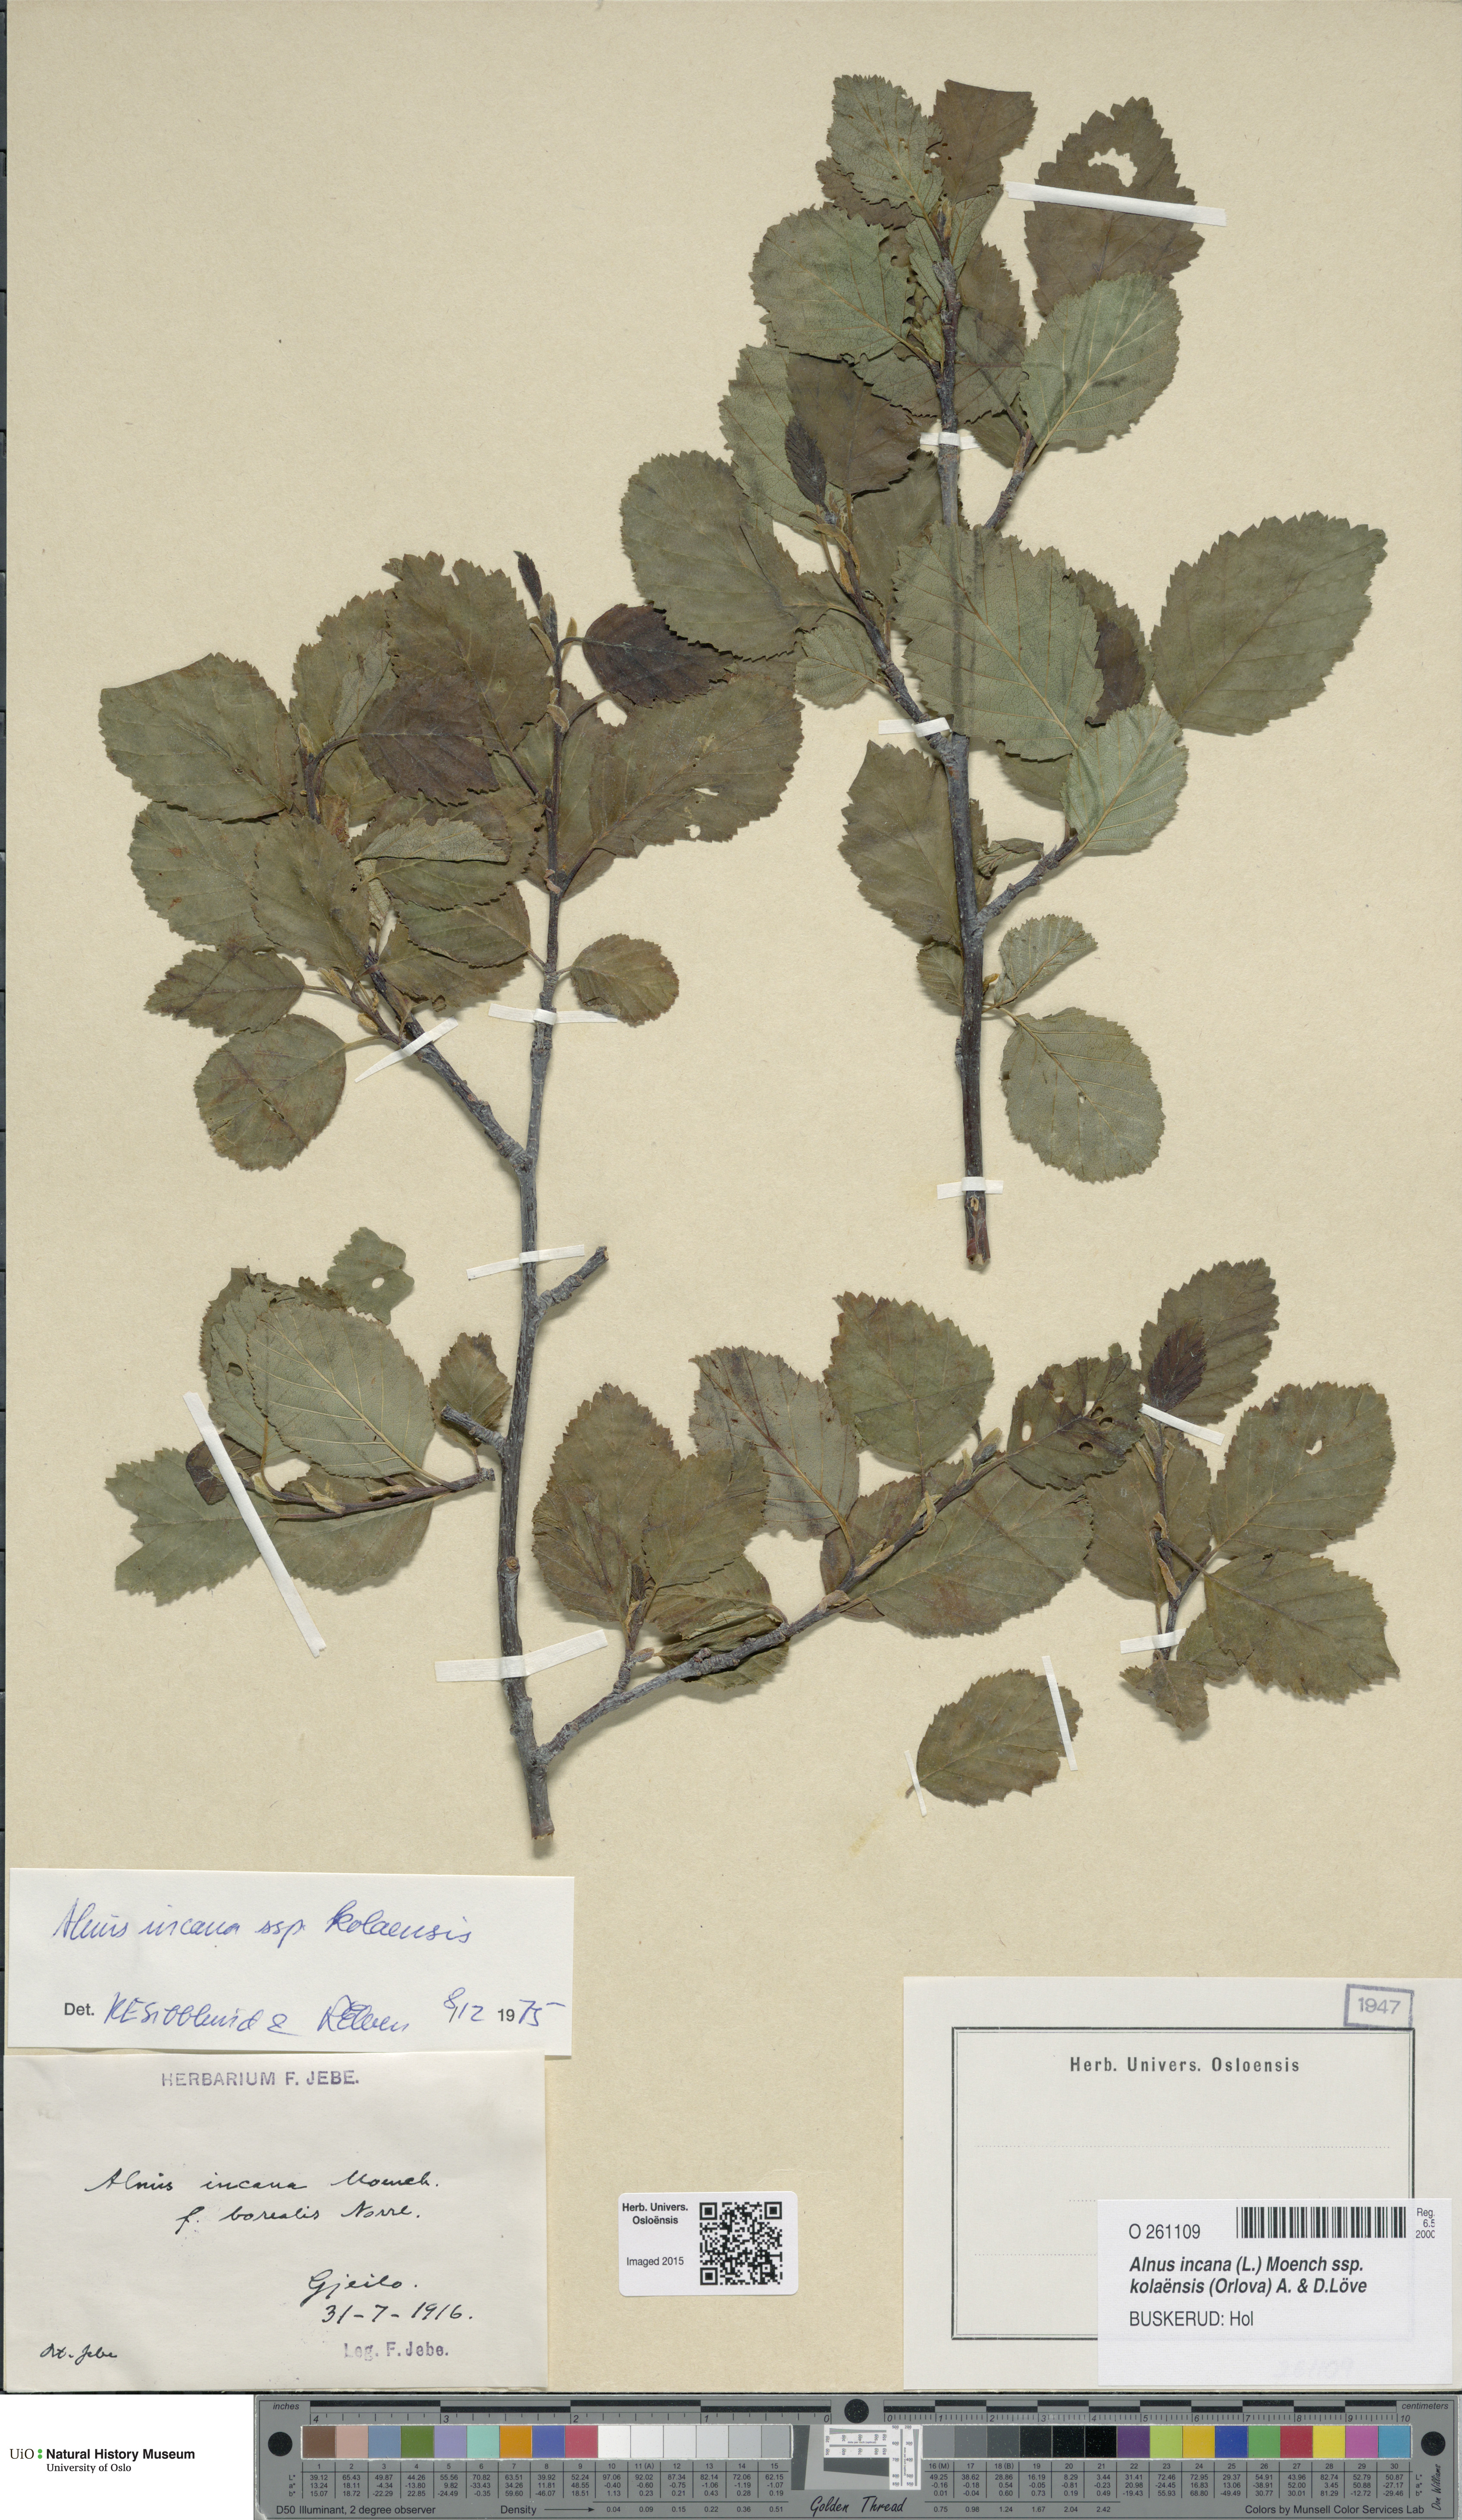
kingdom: Plantae
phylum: Tracheophyta
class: Magnoliopsida
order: Fagales
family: Betulaceae
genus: Alnus
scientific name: Alnus incana
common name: Grey alder
